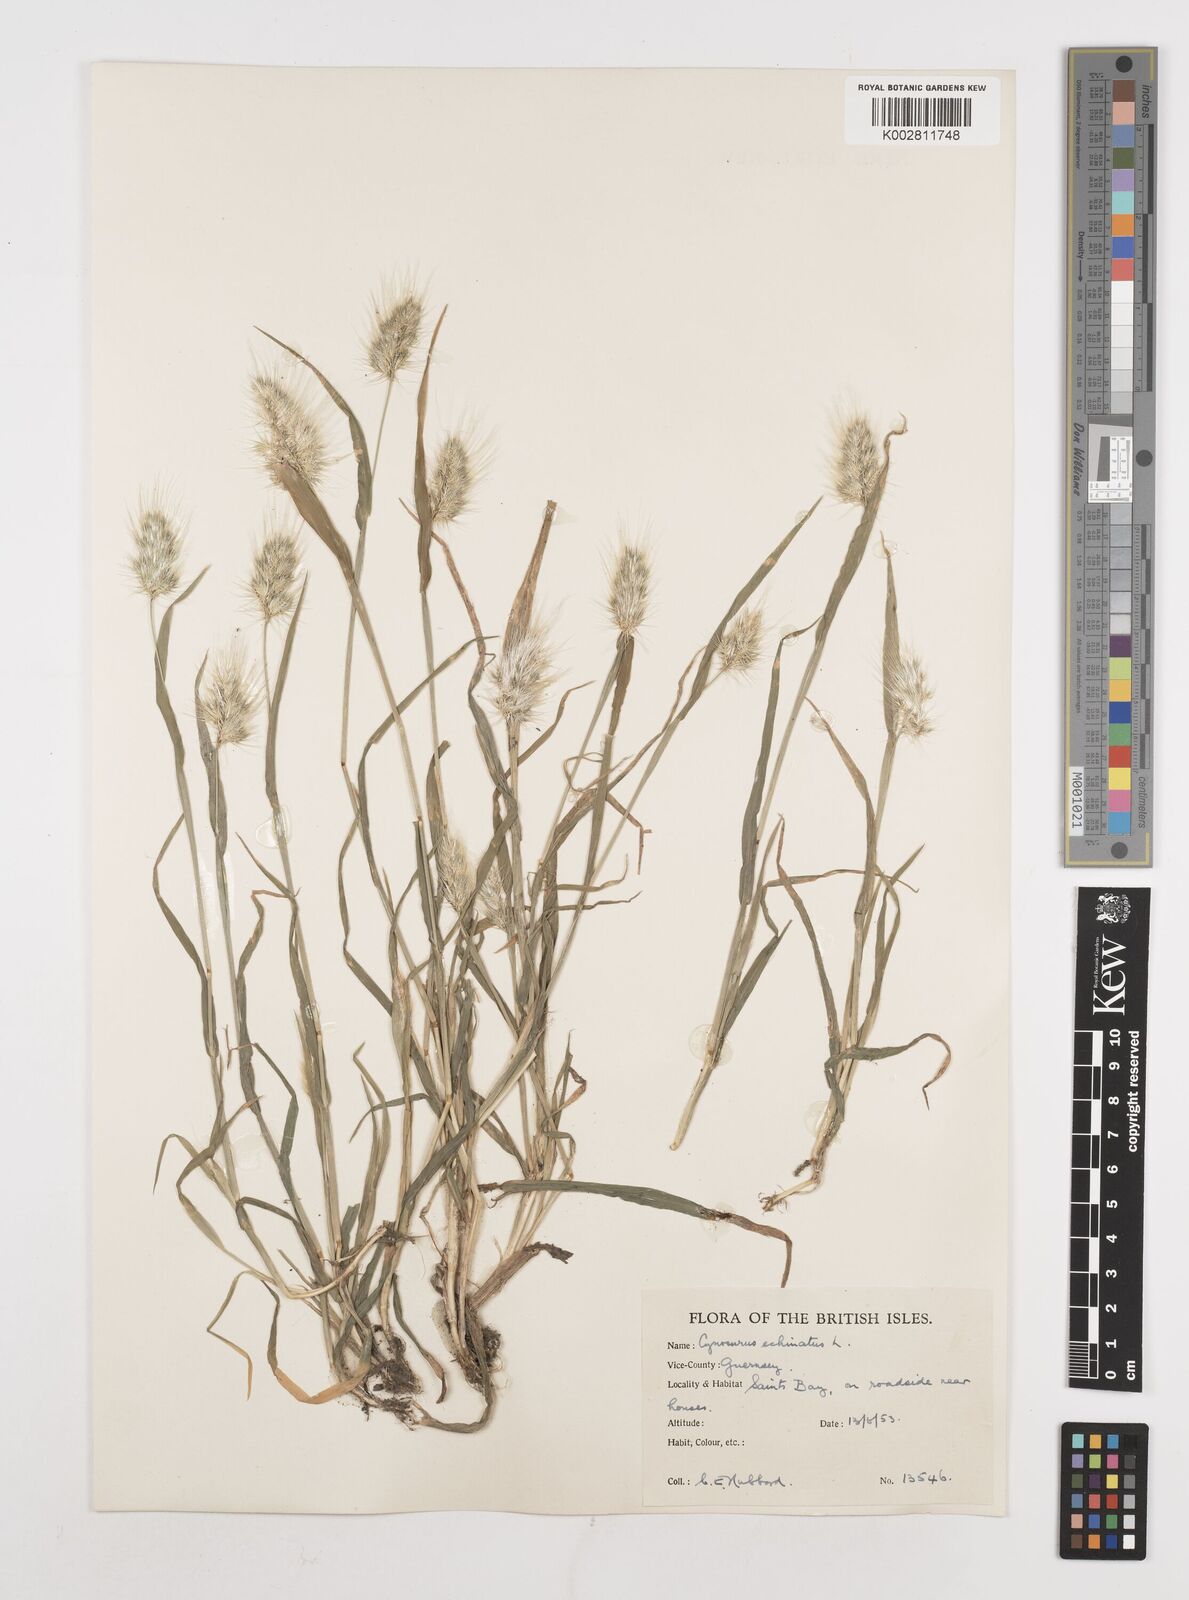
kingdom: Plantae
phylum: Tracheophyta
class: Liliopsida
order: Poales
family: Poaceae
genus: Cynosurus
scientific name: Cynosurus echinatus
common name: Rough dog's-tail
